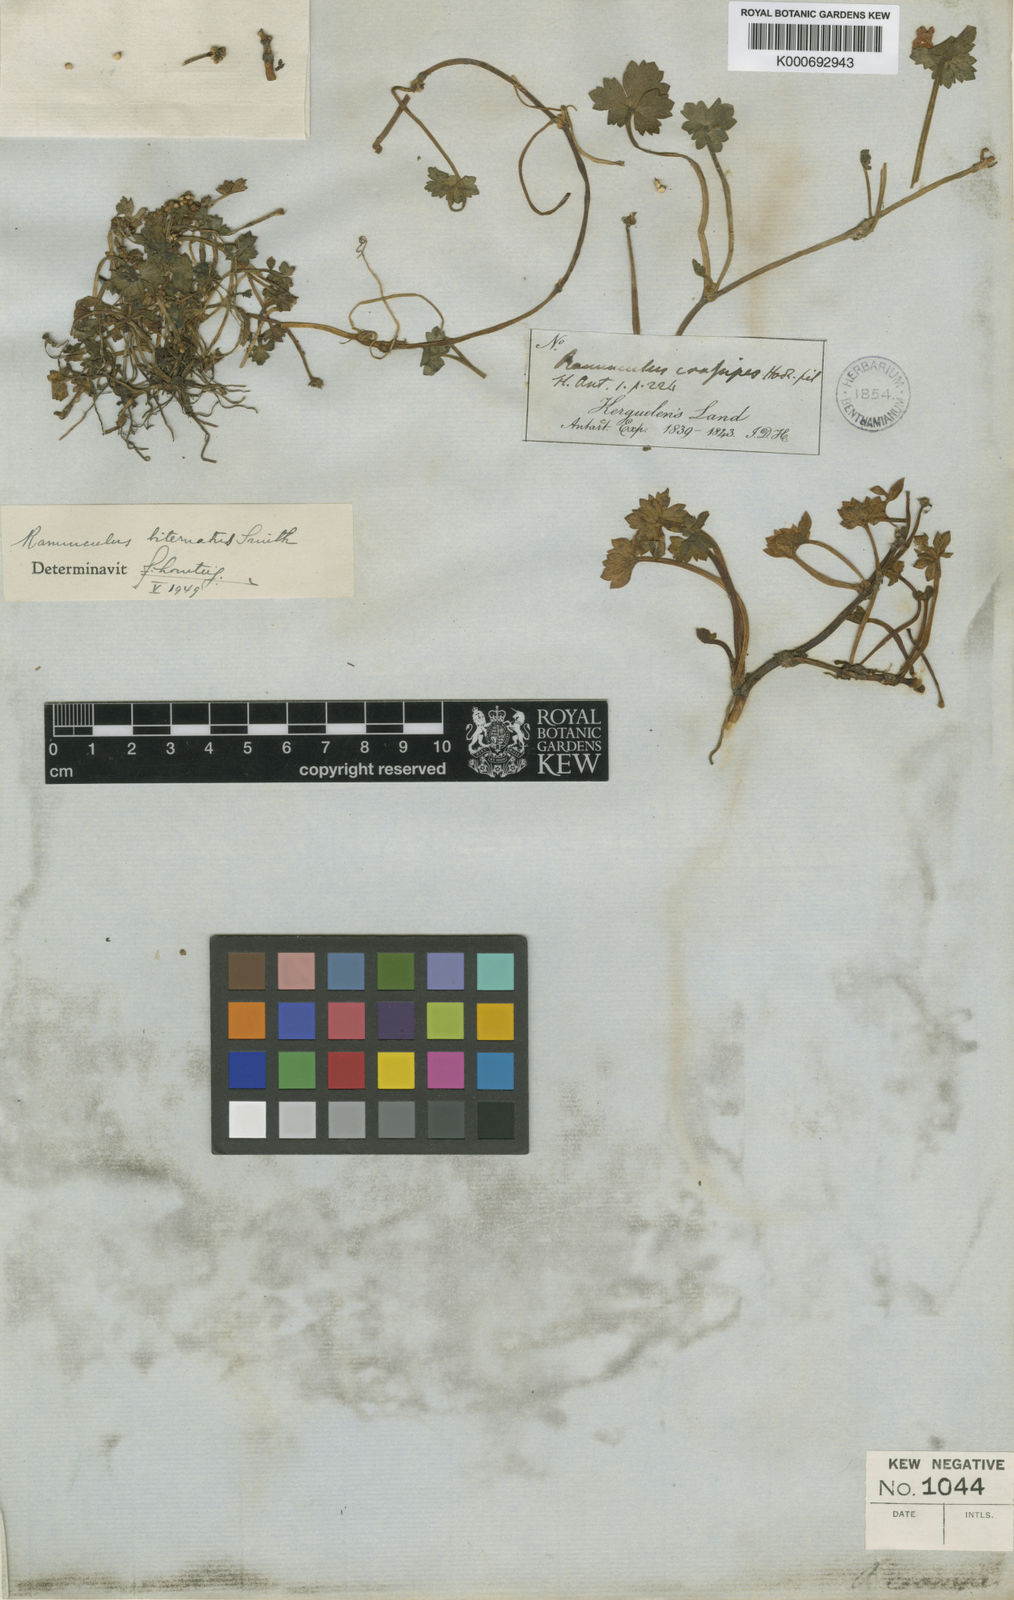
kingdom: Plantae
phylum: Tracheophyta
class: Magnoliopsida
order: Ranunculales
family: Ranunculaceae
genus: Ranunculus
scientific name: Ranunculus biternatus
